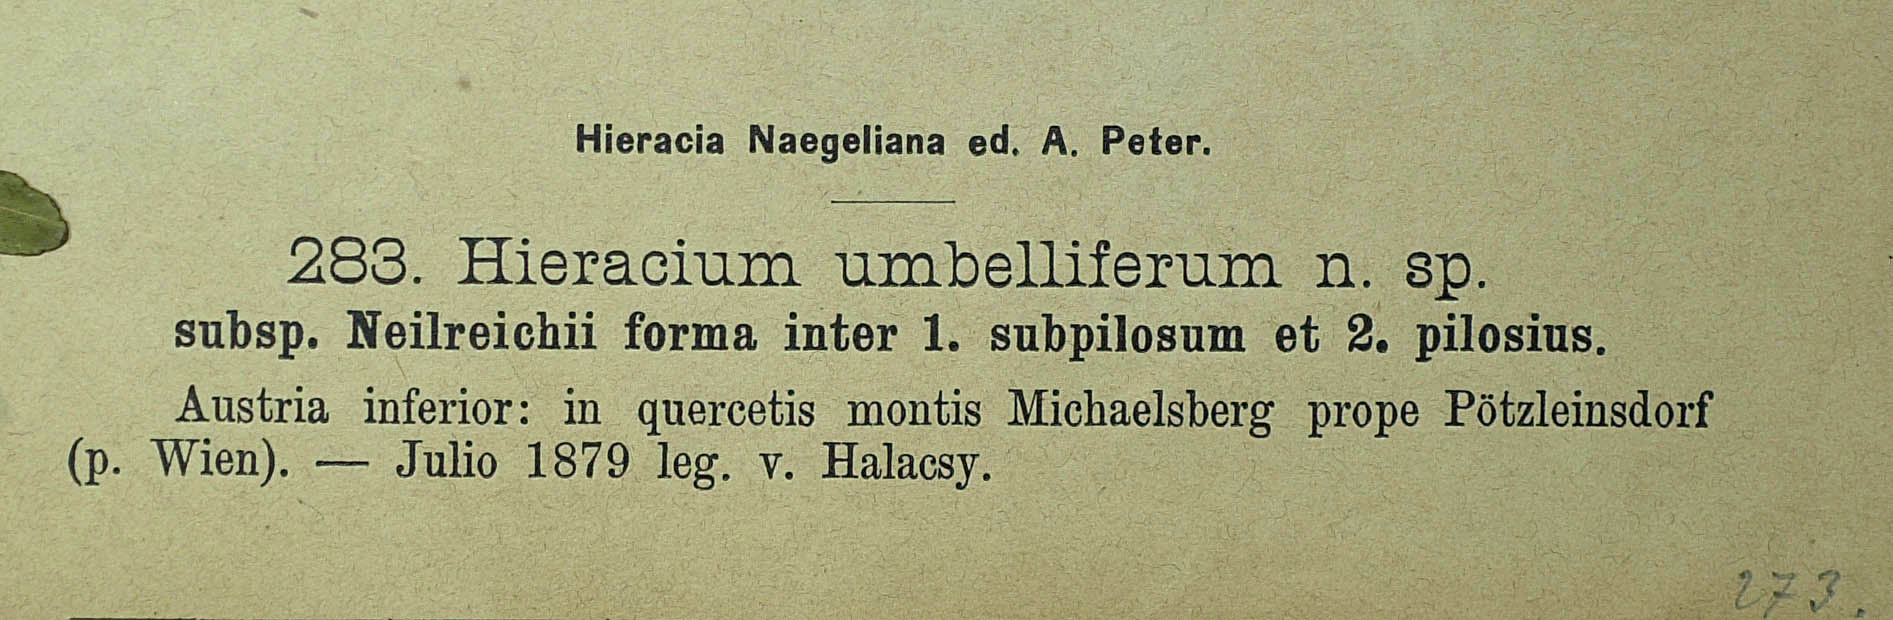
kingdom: Plantae
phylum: Tracheophyta
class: Magnoliopsida
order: Asterales
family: Asteraceae
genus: Pilosella
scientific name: Pilosella densiflora
